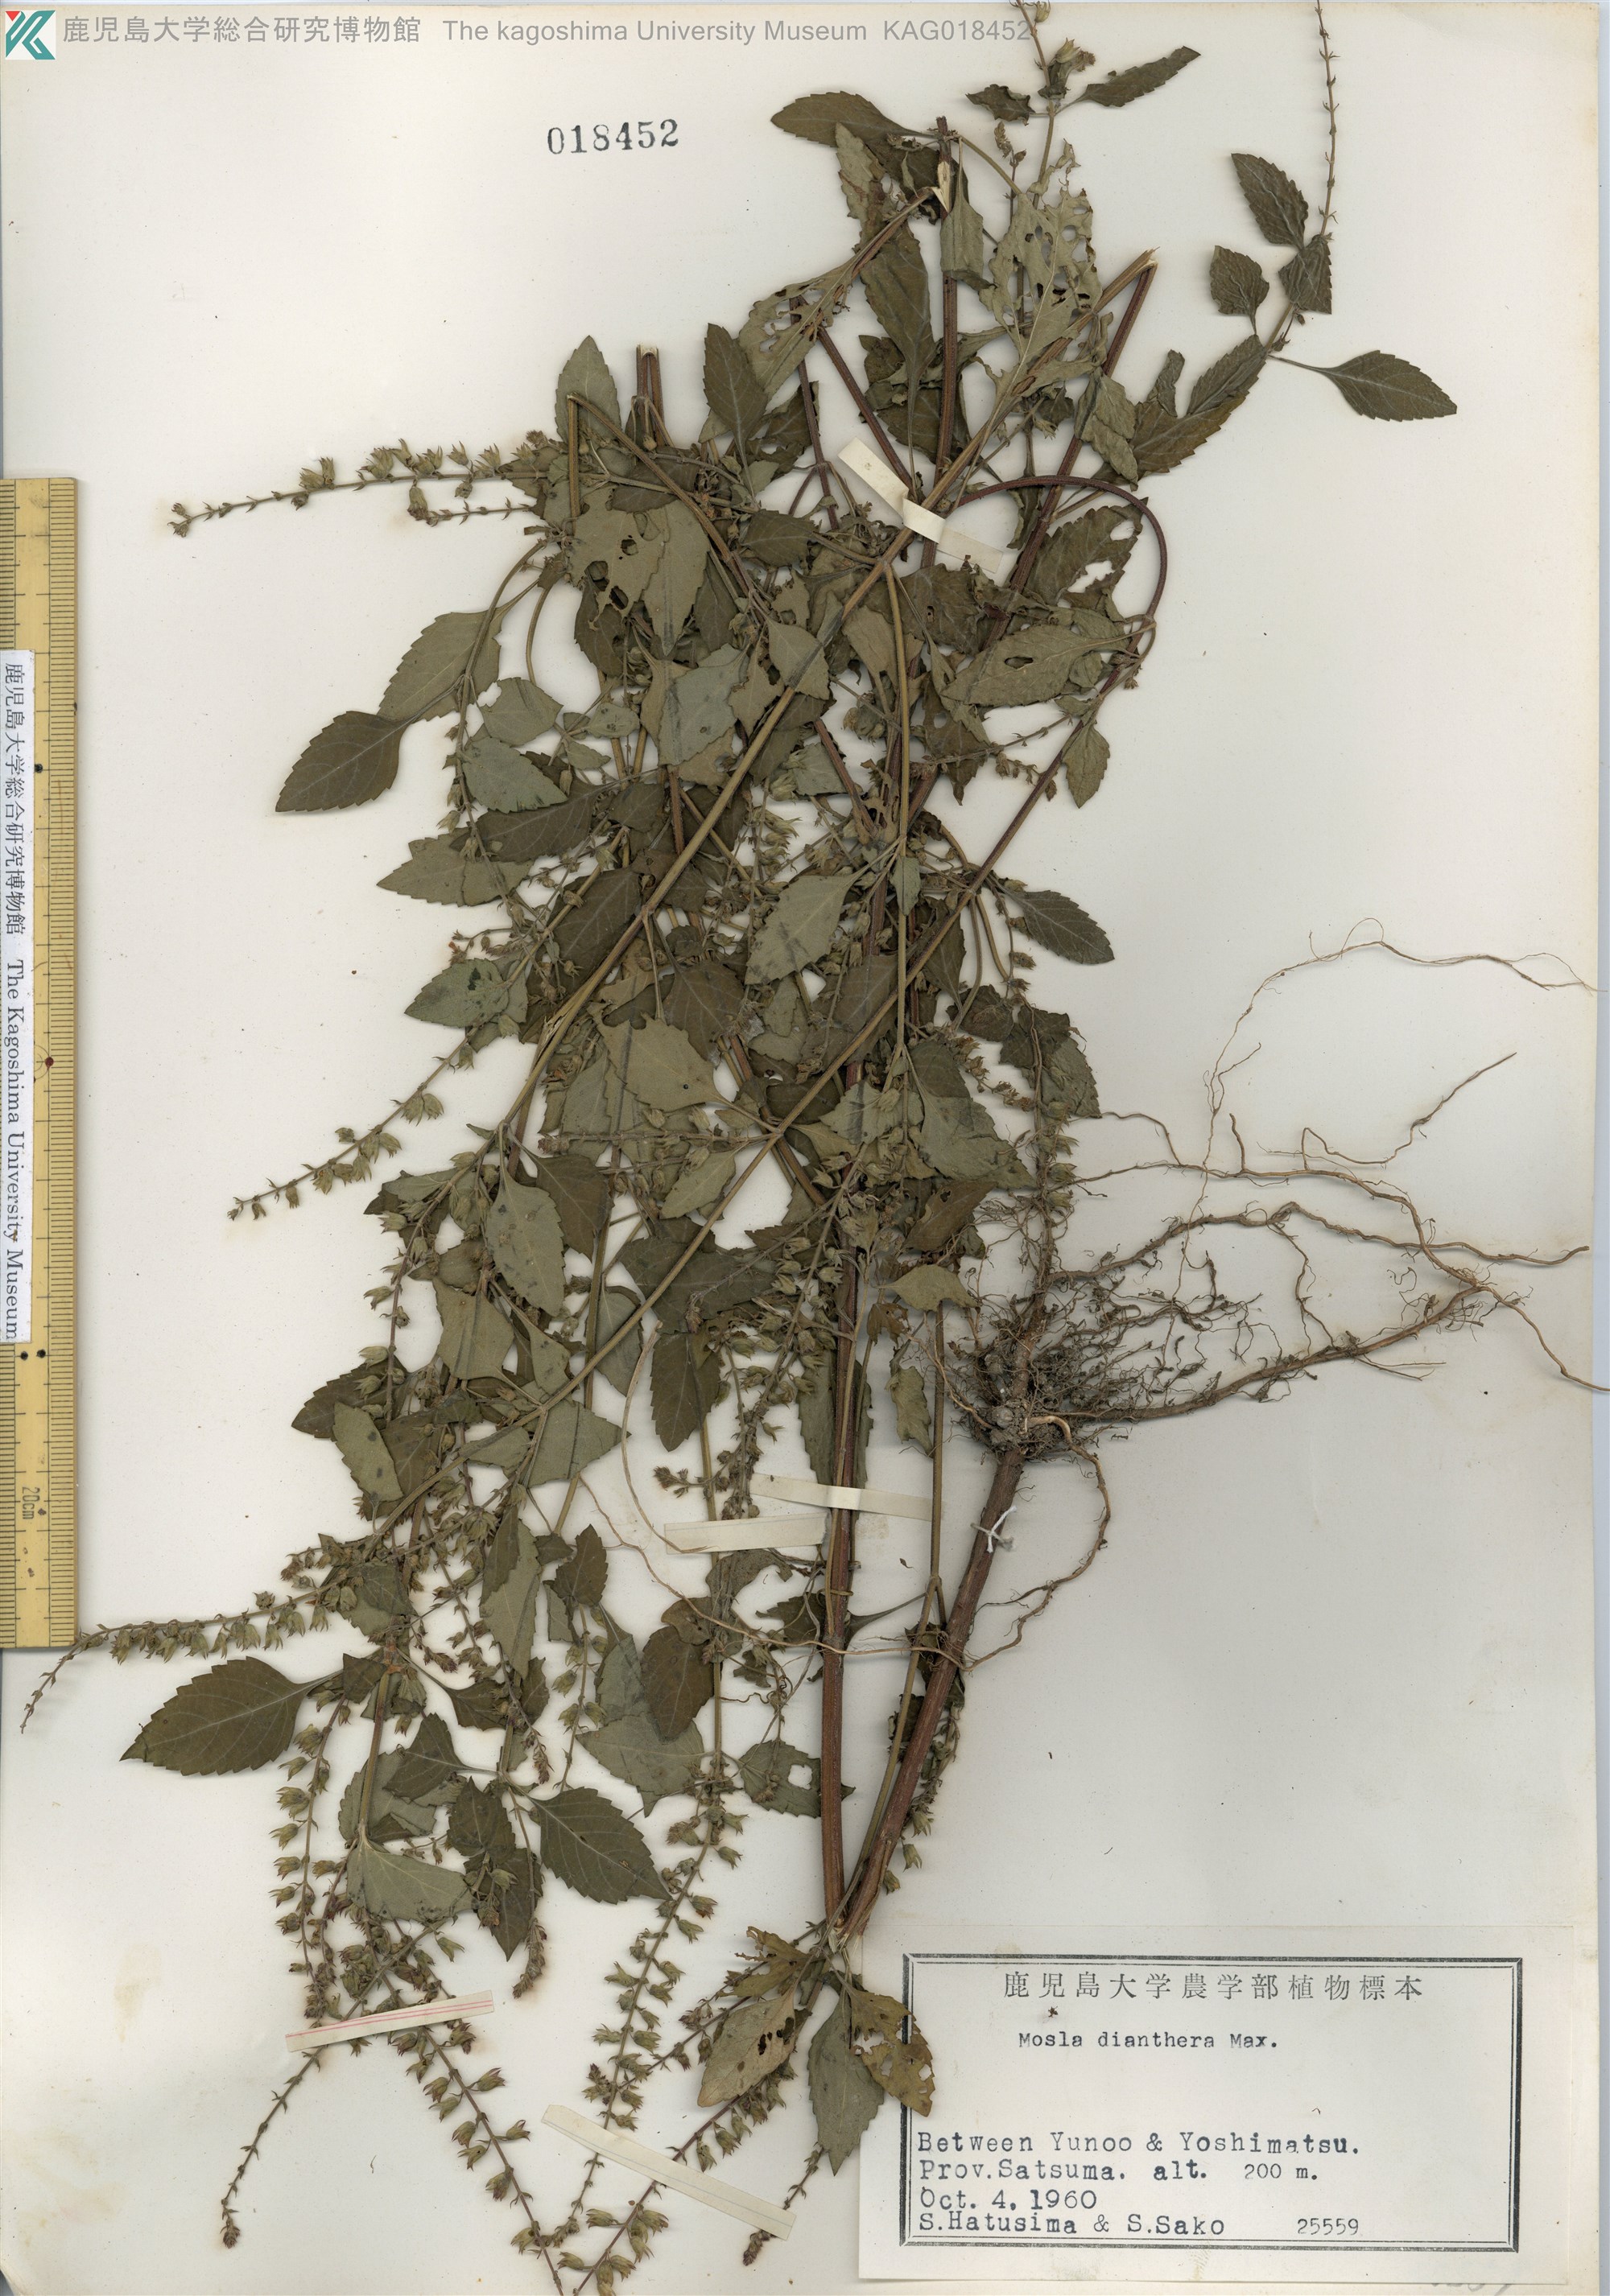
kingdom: Plantae
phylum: Tracheophyta
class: Magnoliopsida
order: Lamiales
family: Lamiaceae
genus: Mosla
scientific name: Mosla dianthera
